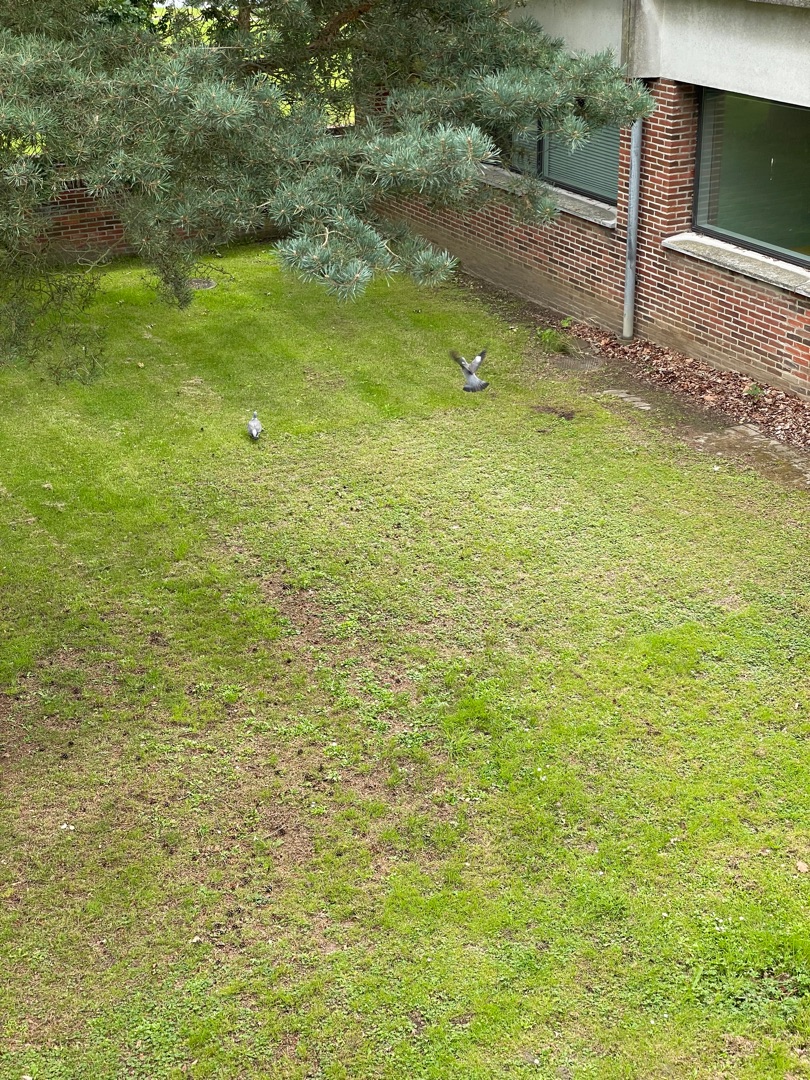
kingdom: Animalia
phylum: Chordata
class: Aves
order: Columbiformes
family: Columbidae
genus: Columba
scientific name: Columba palumbus
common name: Ringdue
